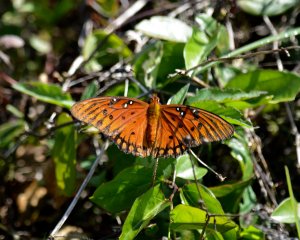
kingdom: Animalia
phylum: Arthropoda
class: Insecta
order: Lepidoptera
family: Nymphalidae
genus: Dione
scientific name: Dione vanillae
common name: Gulf Fritillary
